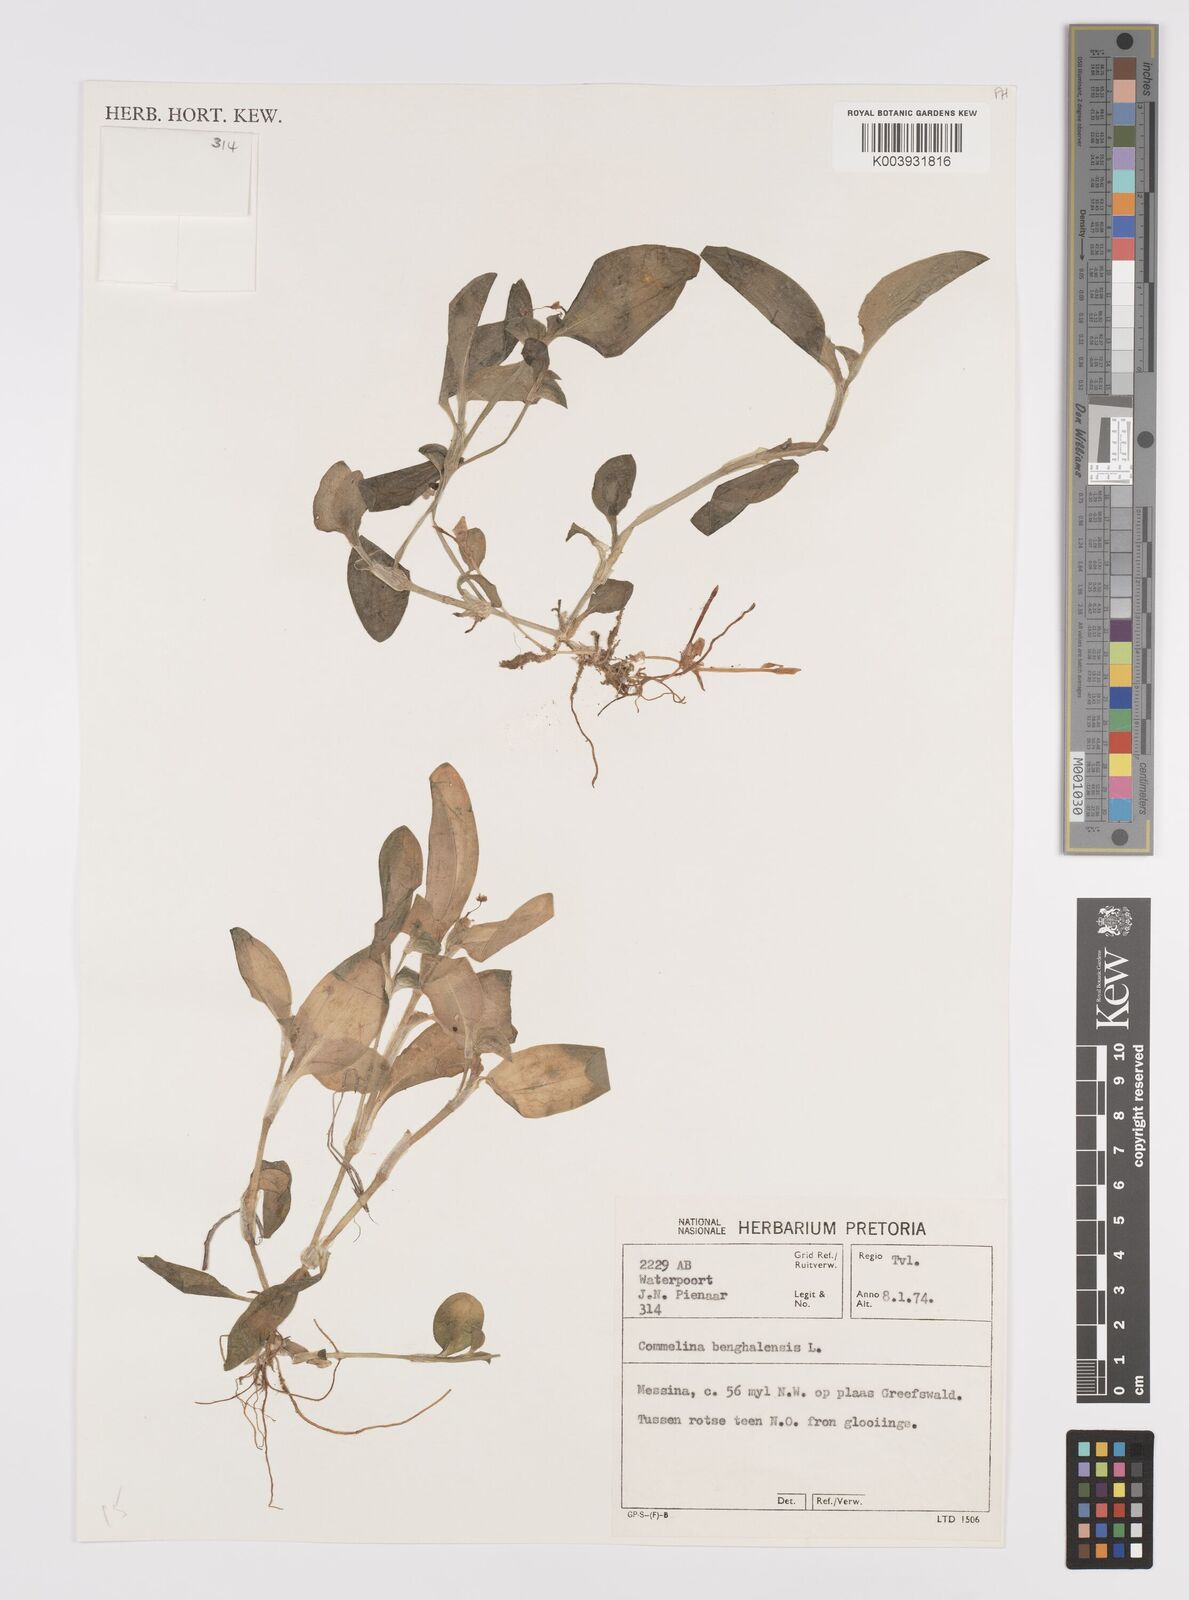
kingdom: Plantae
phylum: Tracheophyta
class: Liliopsida
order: Commelinales
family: Commelinaceae
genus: Commelina
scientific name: Commelina benghalensis
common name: Jio
